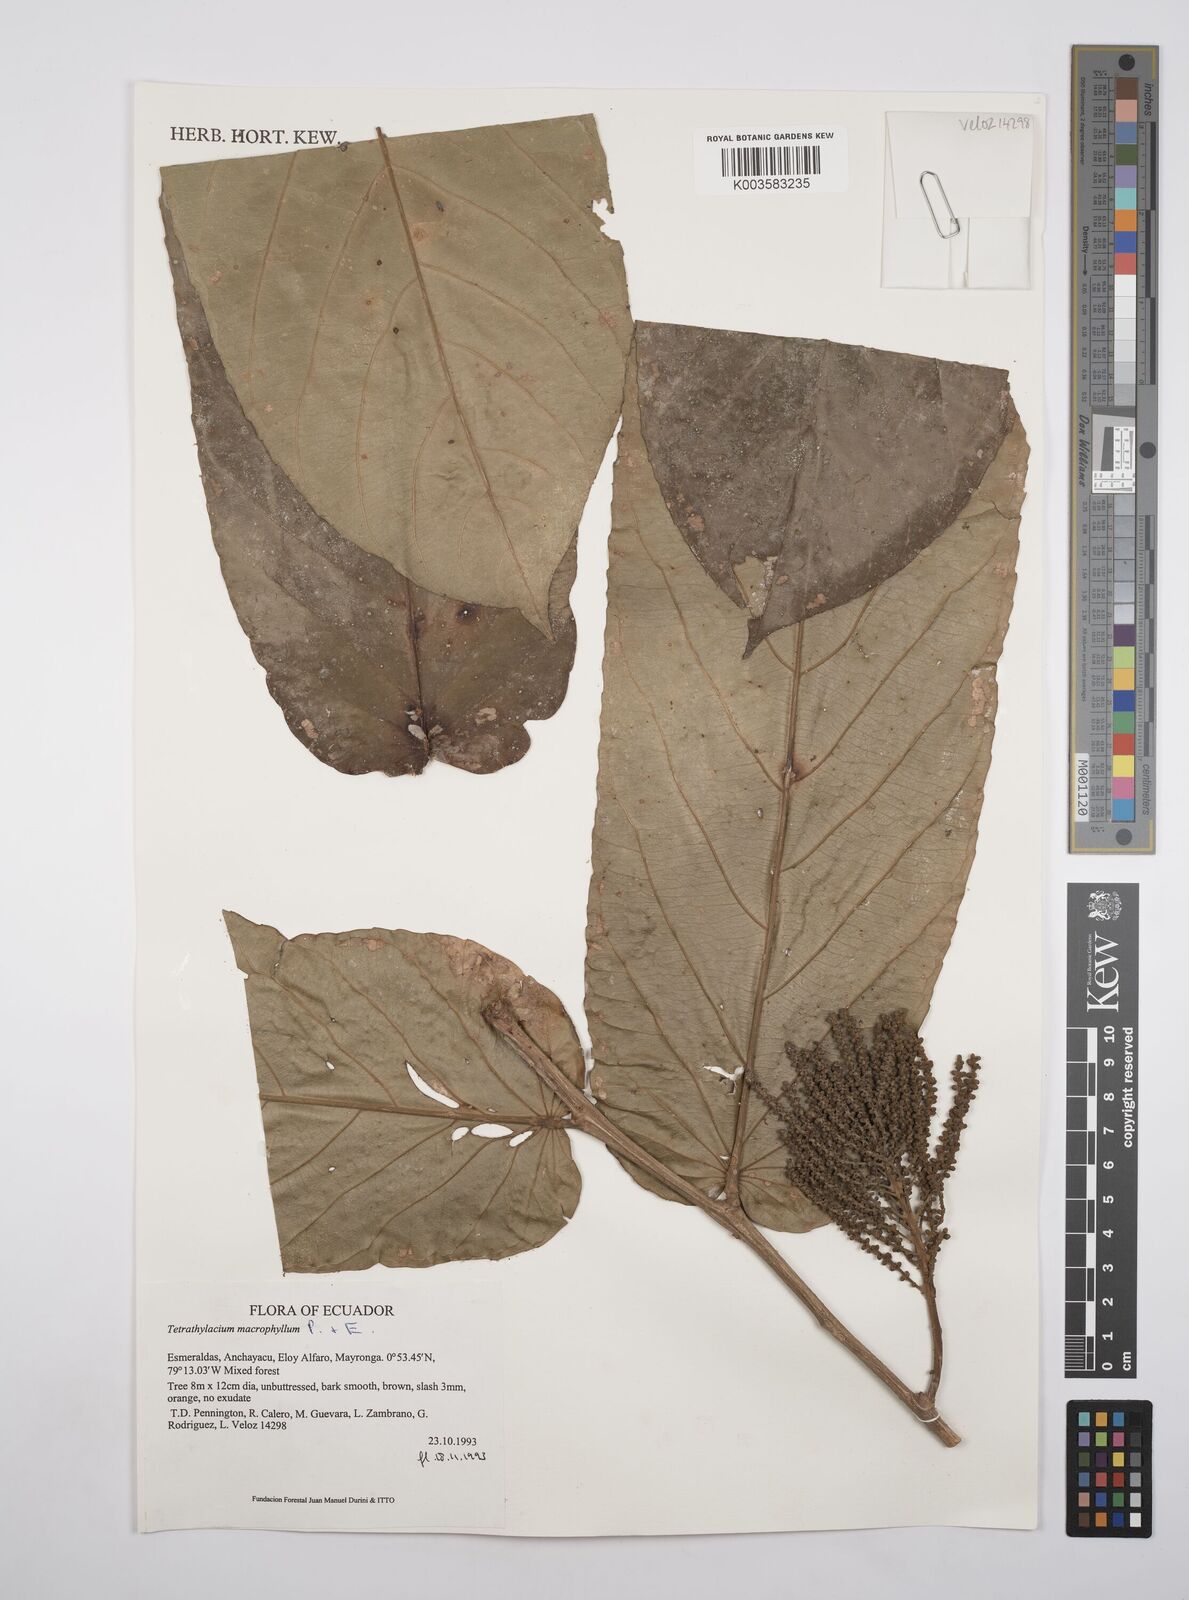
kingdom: Plantae
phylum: Tracheophyta
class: Magnoliopsida
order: Malpighiales
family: Salicaceae
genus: Tetrathylacium
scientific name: Tetrathylacium macrophyllum
